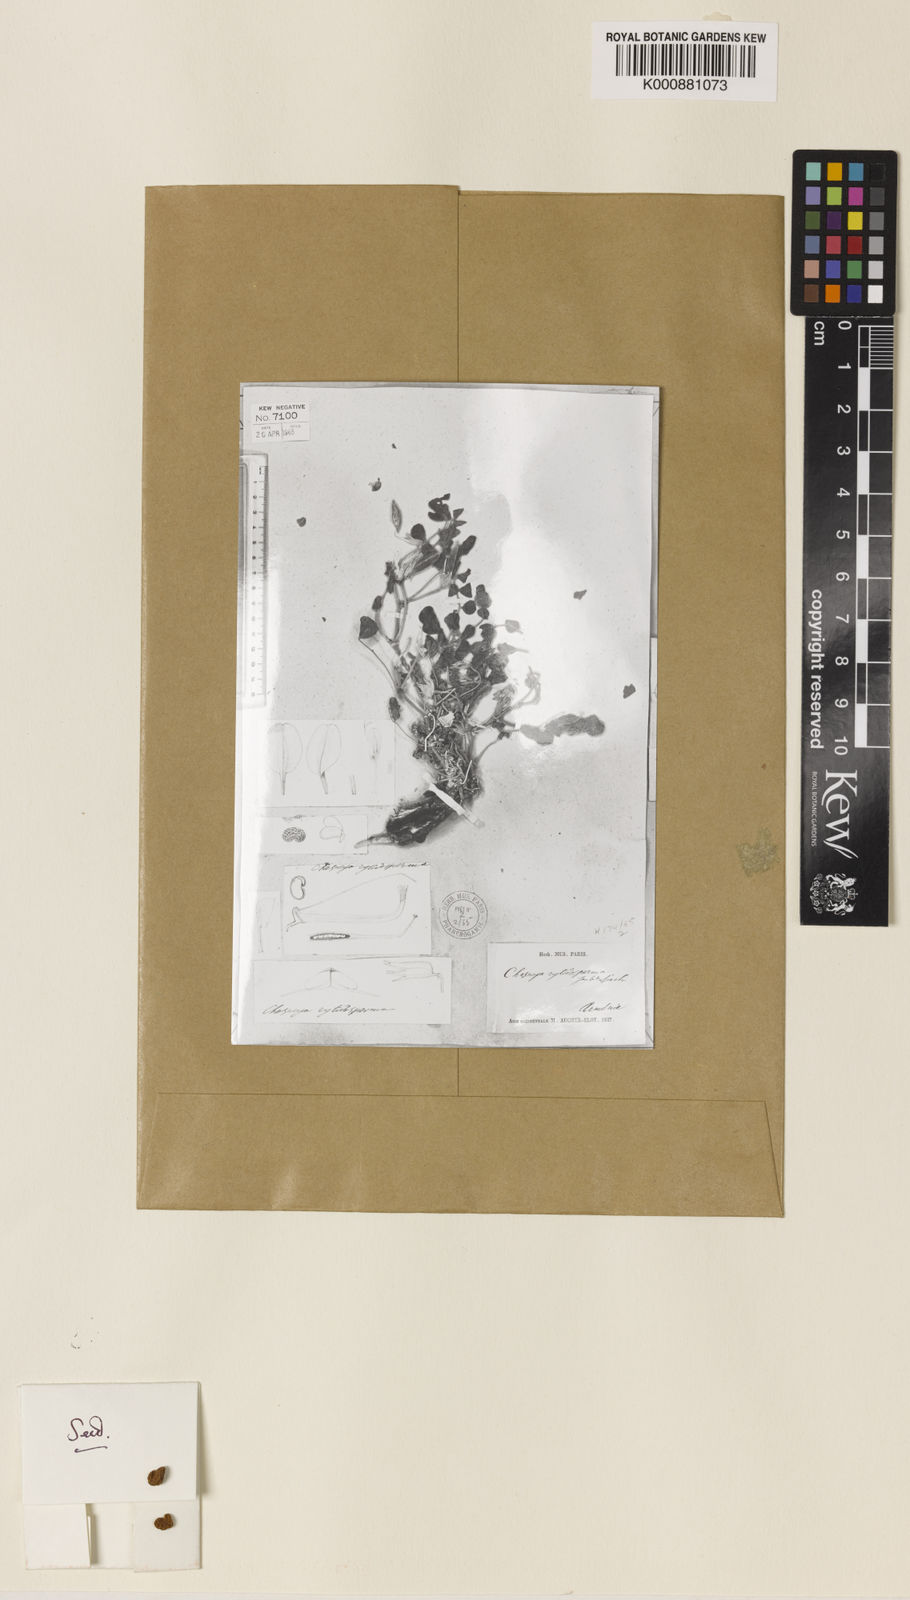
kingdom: Plantae
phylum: Tracheophyta
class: Magnoliopsida
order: Fabales
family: Fabaceae
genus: Chesneya
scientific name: Chesneya rytidosperma
